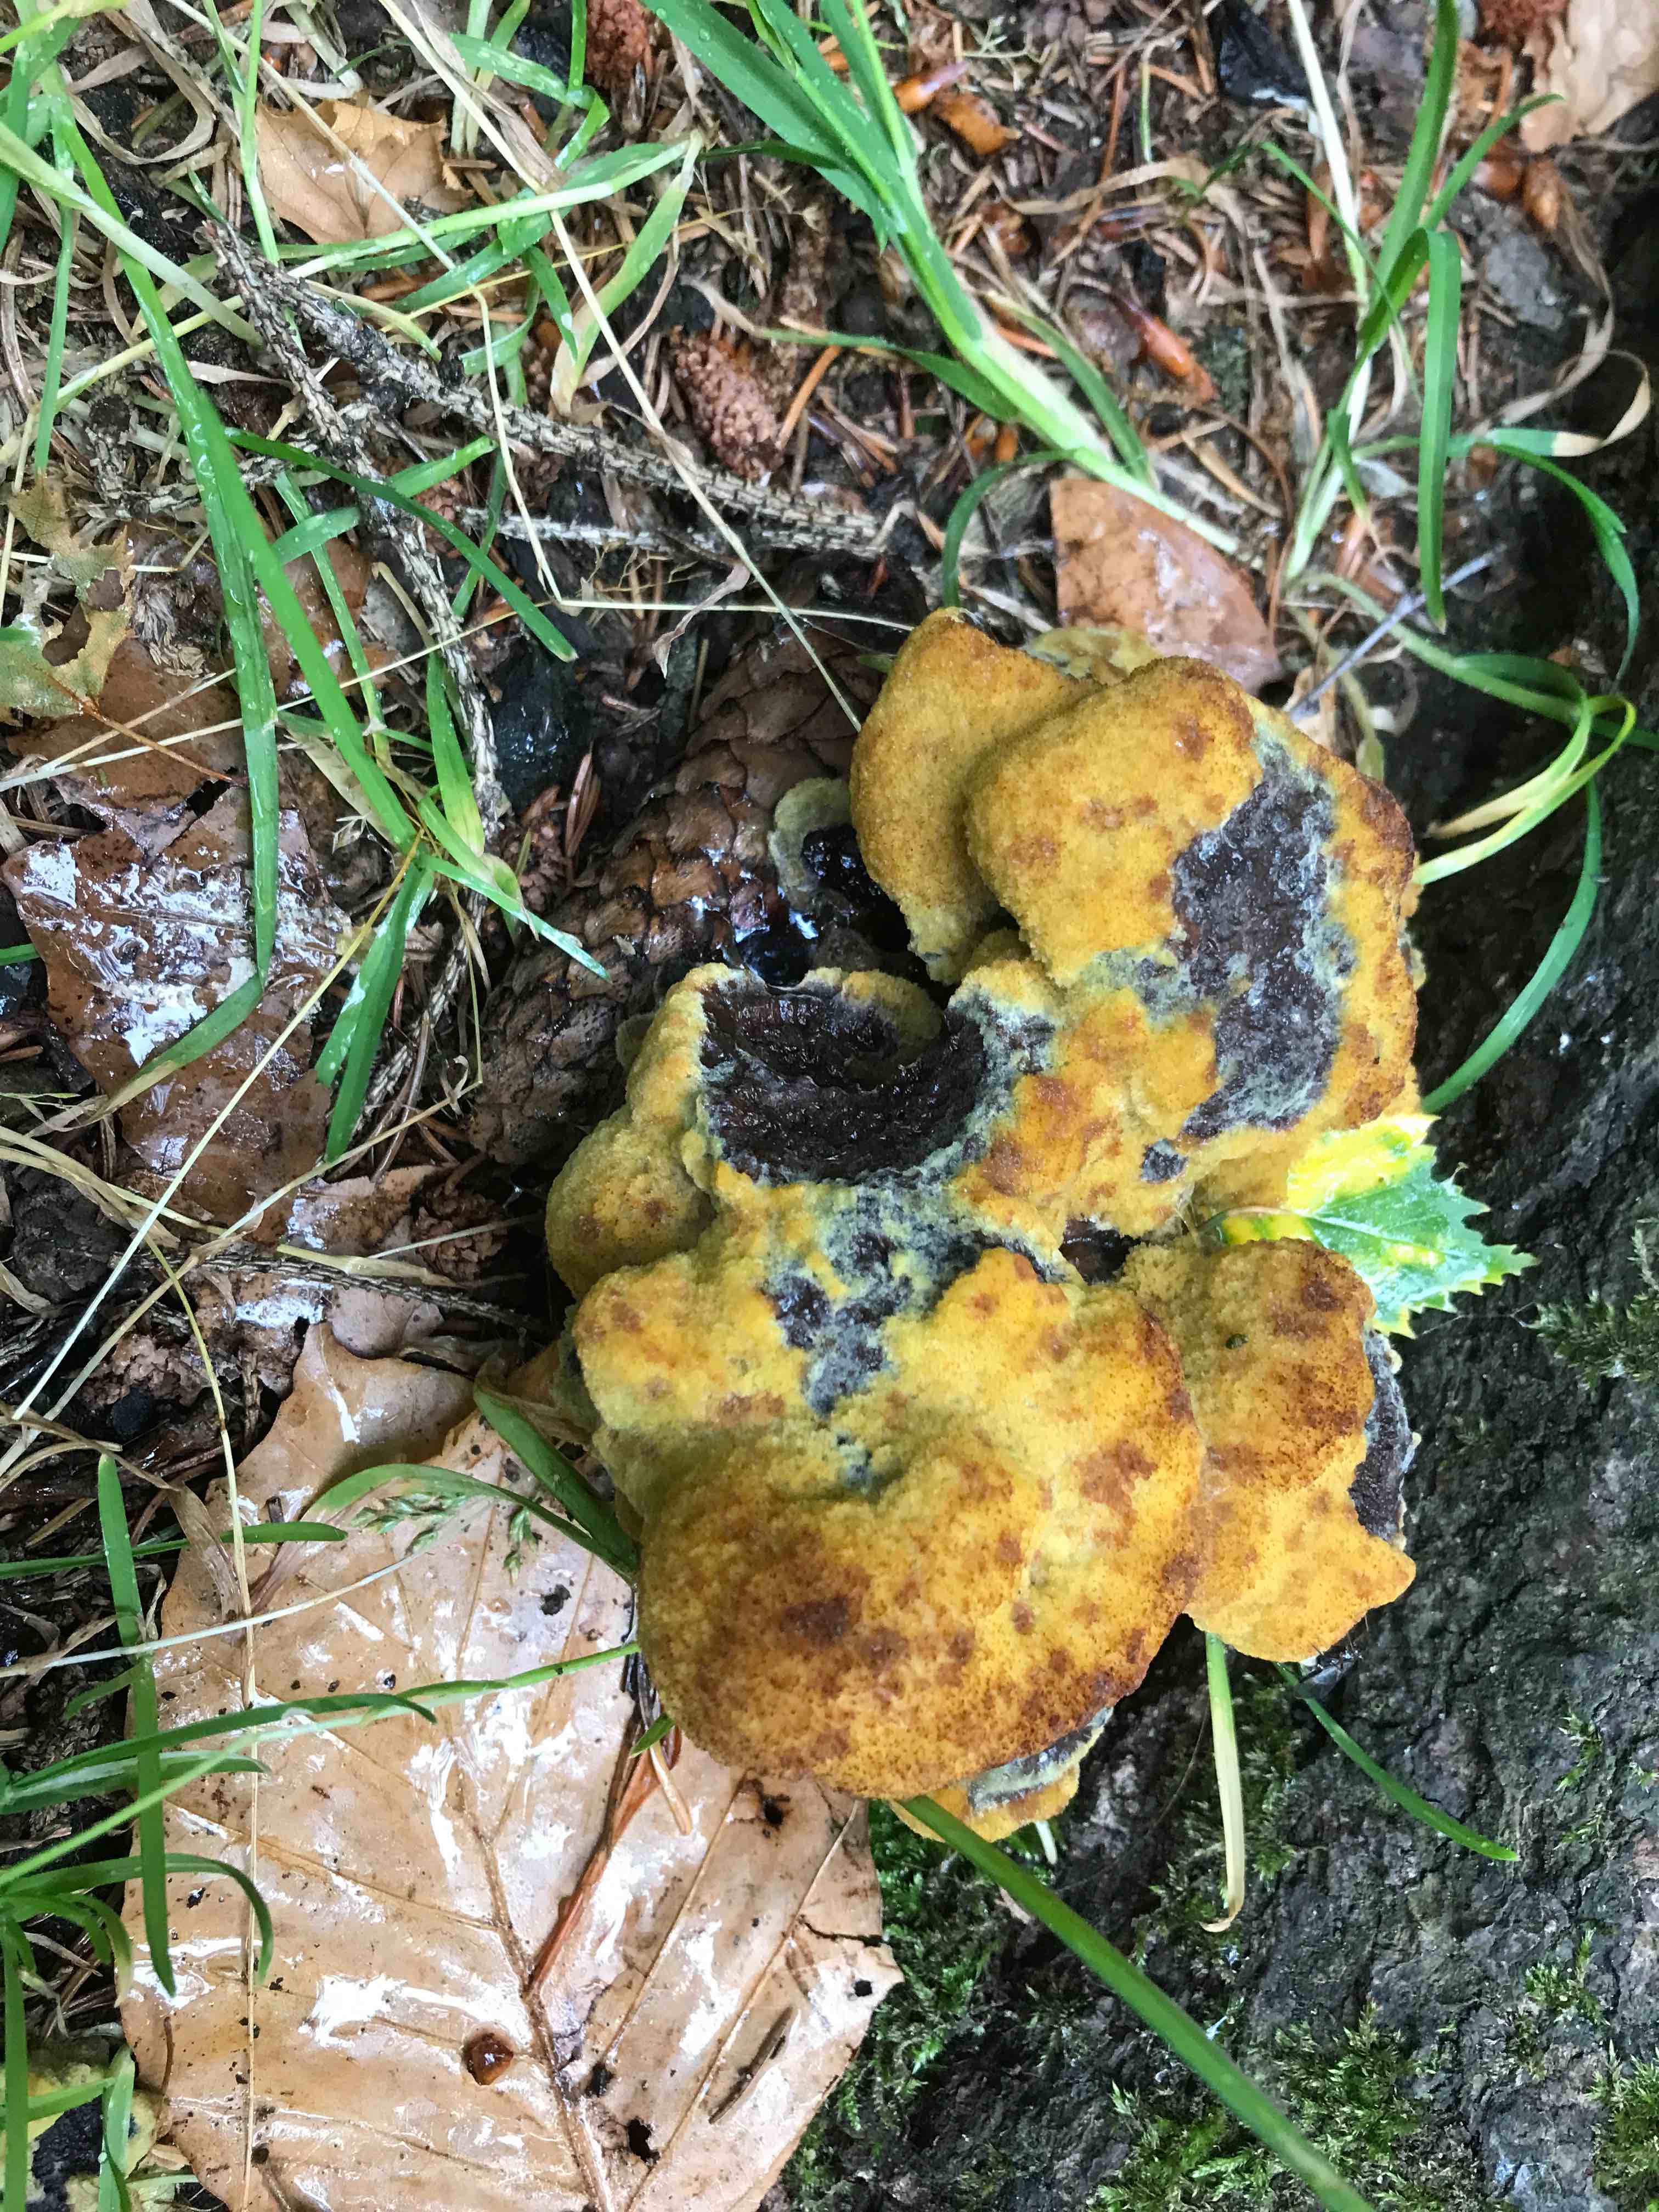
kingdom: Fungi
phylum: Basidiomycota
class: Agaricomycetes
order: Polyporales
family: Laetiporaceae
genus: Phaeolus
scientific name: Phaeolus schweinitzii
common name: brunporesvamp
